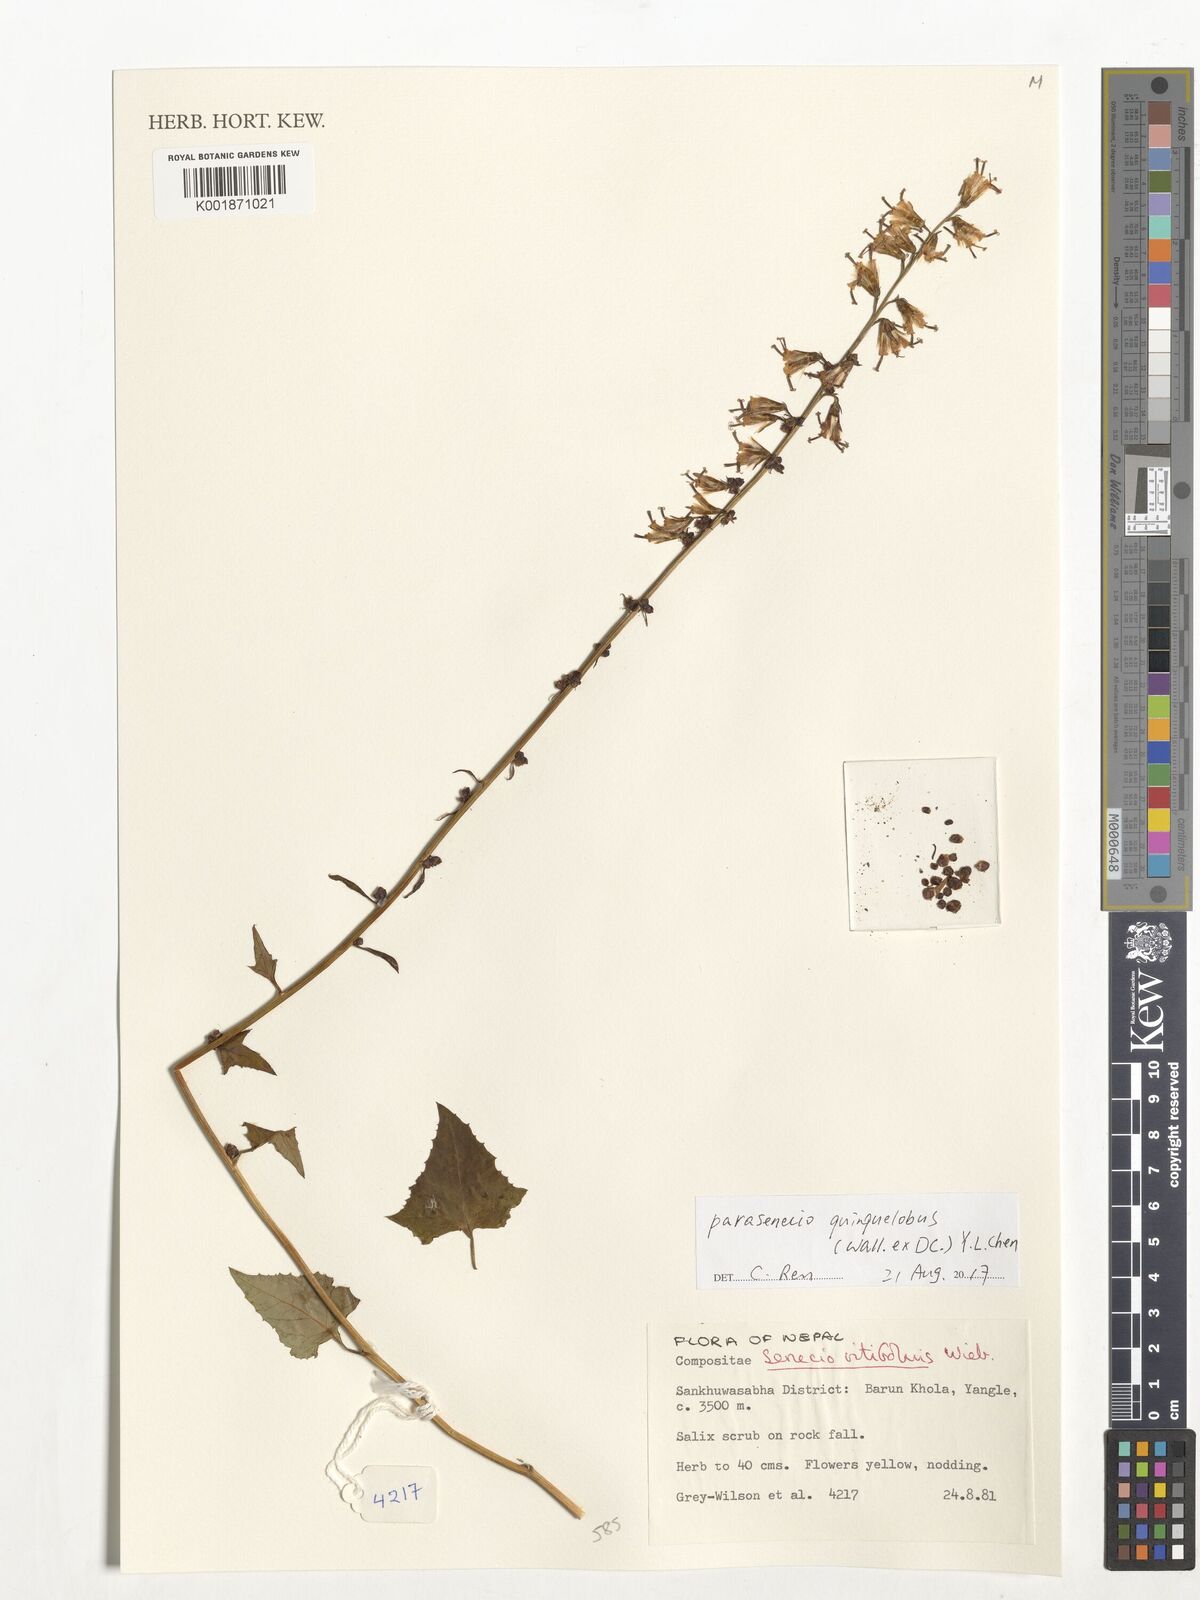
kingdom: Plantae
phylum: Tracheophyta
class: Magnoliopsida
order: Asterales
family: Asteraceae
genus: Parasenecio
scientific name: Parasenecio quinquelobus
